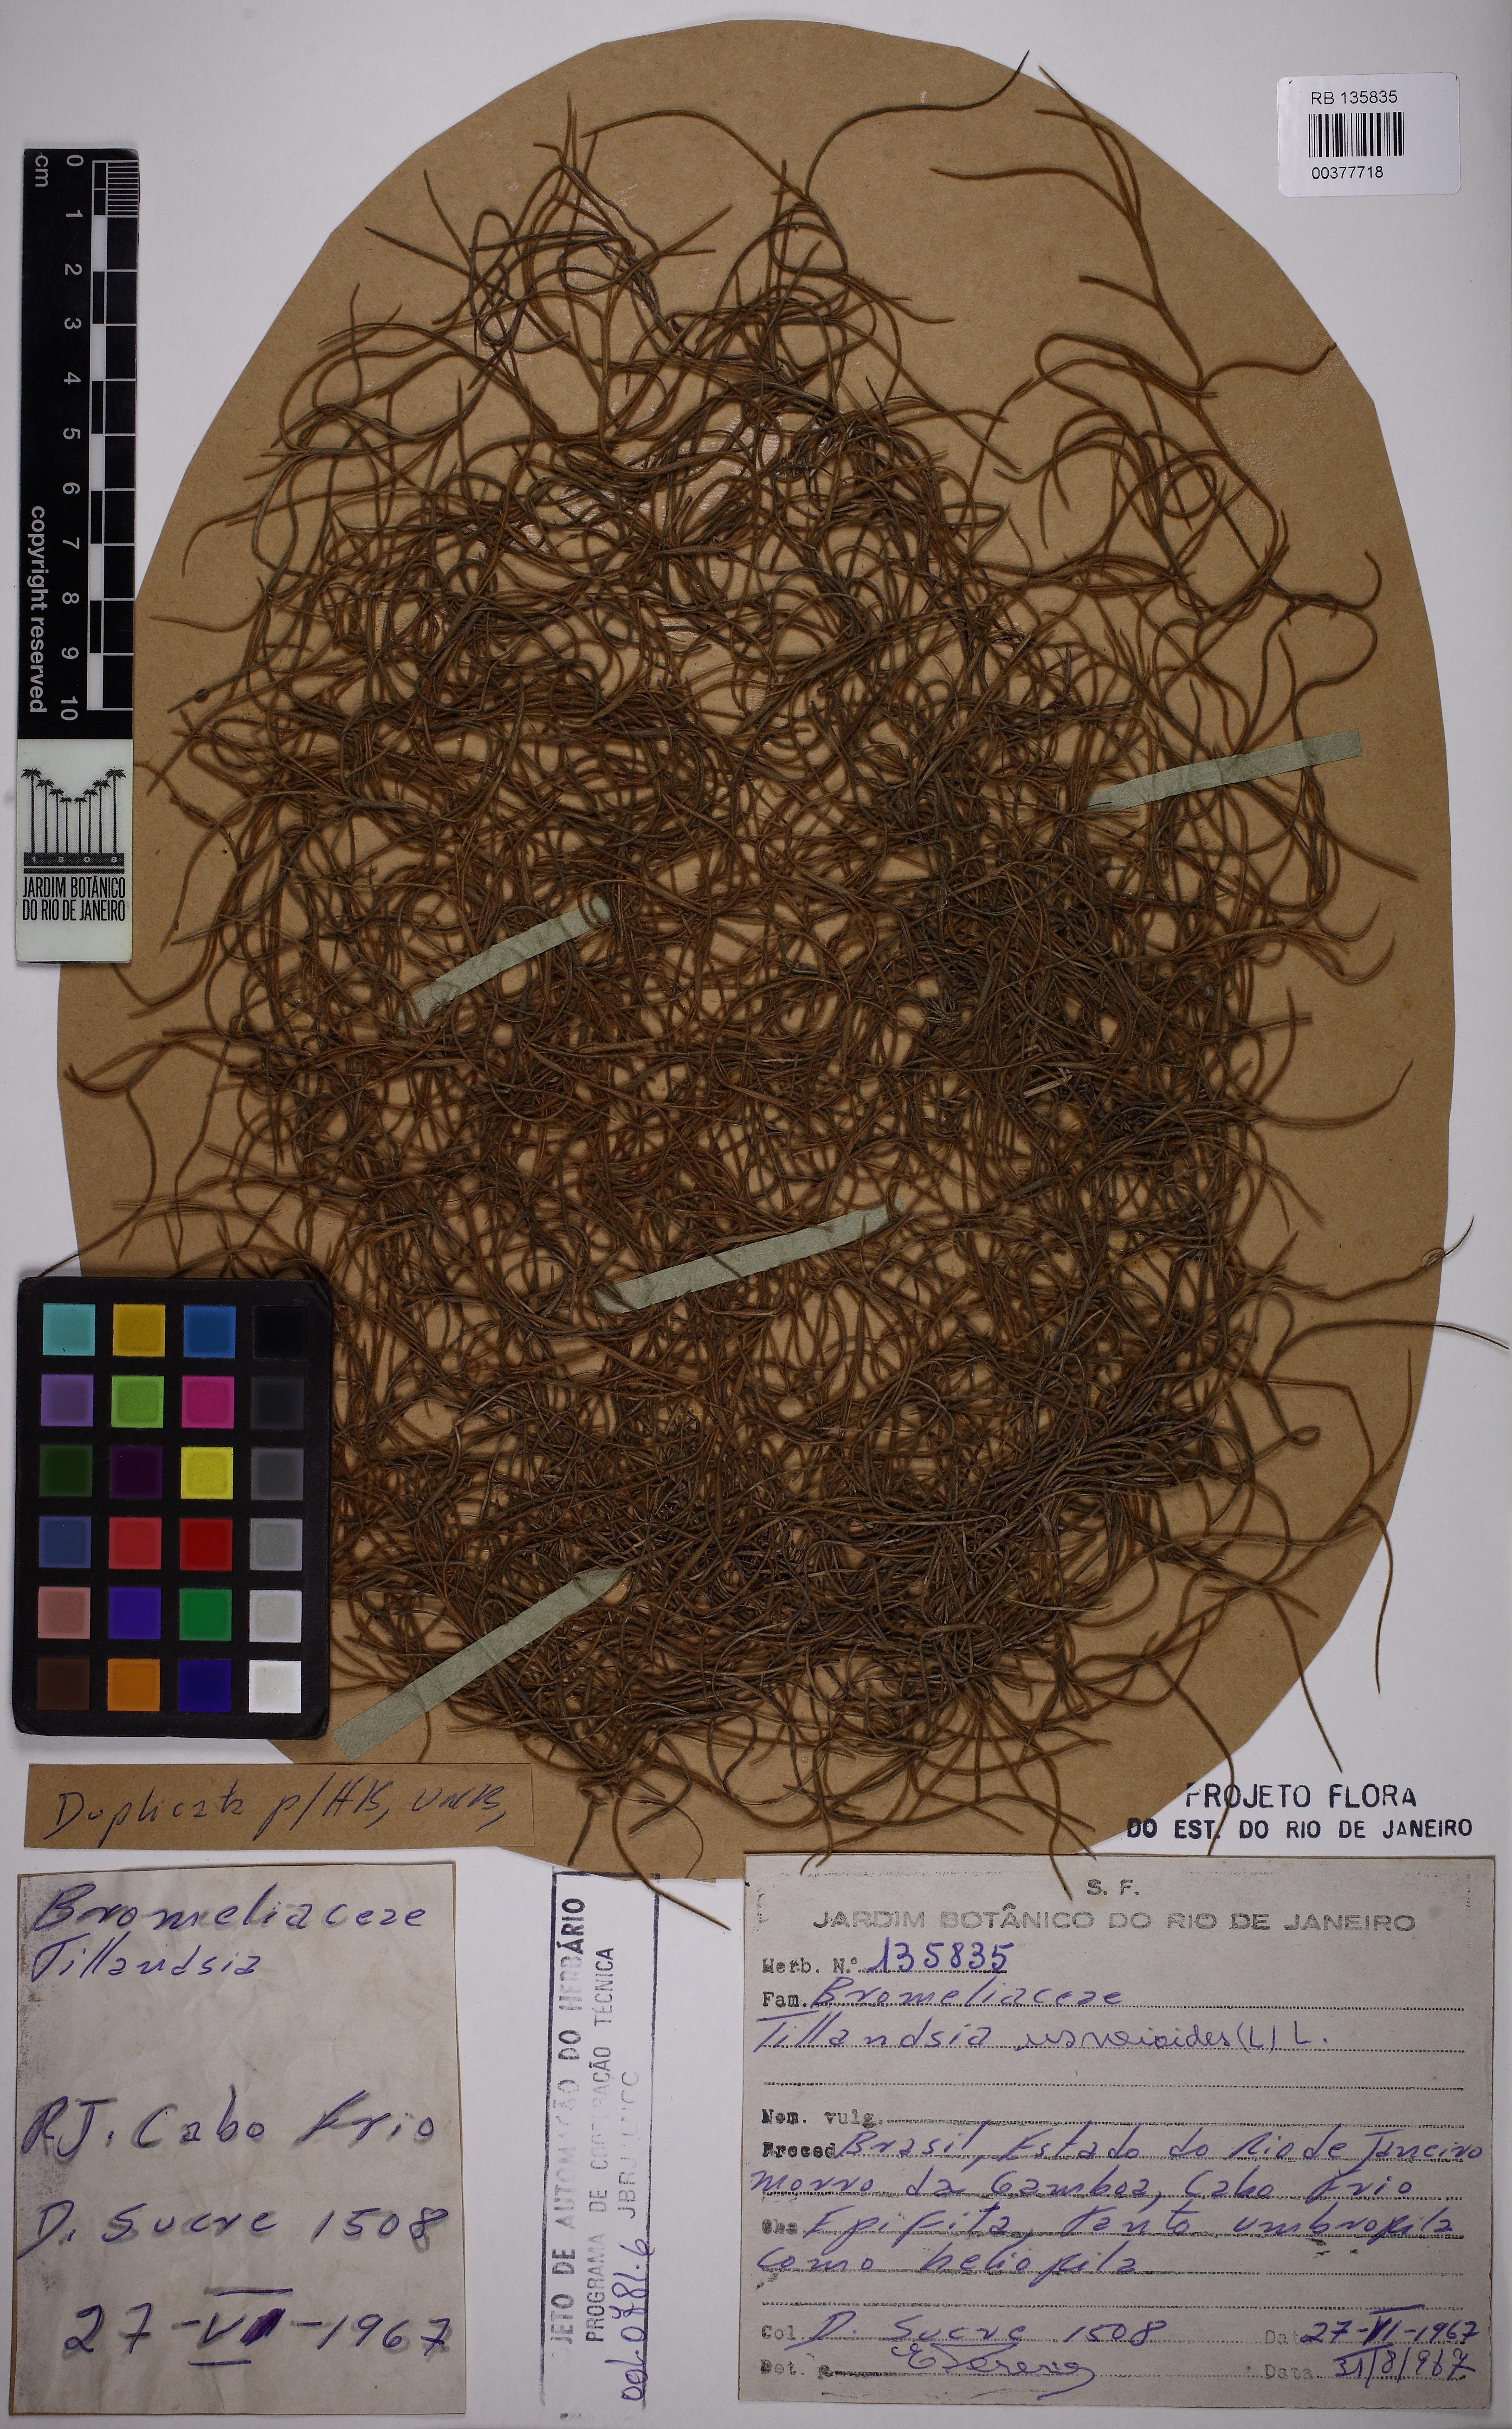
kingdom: Plantae
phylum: Tracheophyta
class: Liliopsida
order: Poales
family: Bromeliaceae
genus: Tillandsia
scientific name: Tillandsia usneoides
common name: Spanish moss
